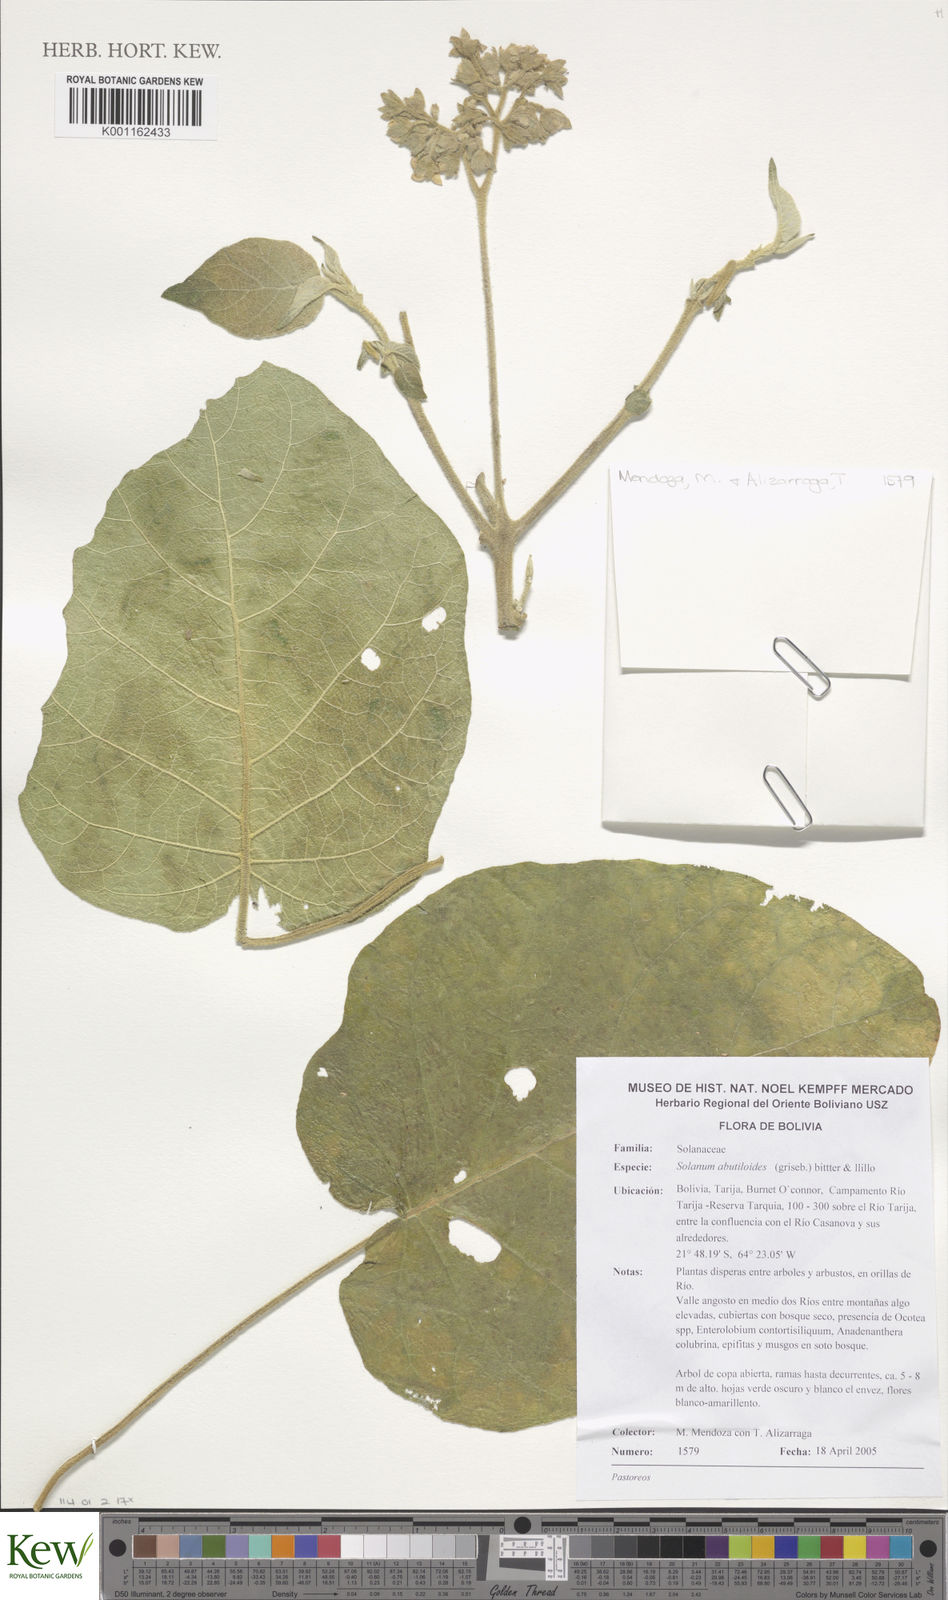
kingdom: Plantae
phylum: Tracheophyta
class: Magnoliopsida
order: Solanales
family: Solanaceae
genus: Solanum
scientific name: Solanum abutiloides
